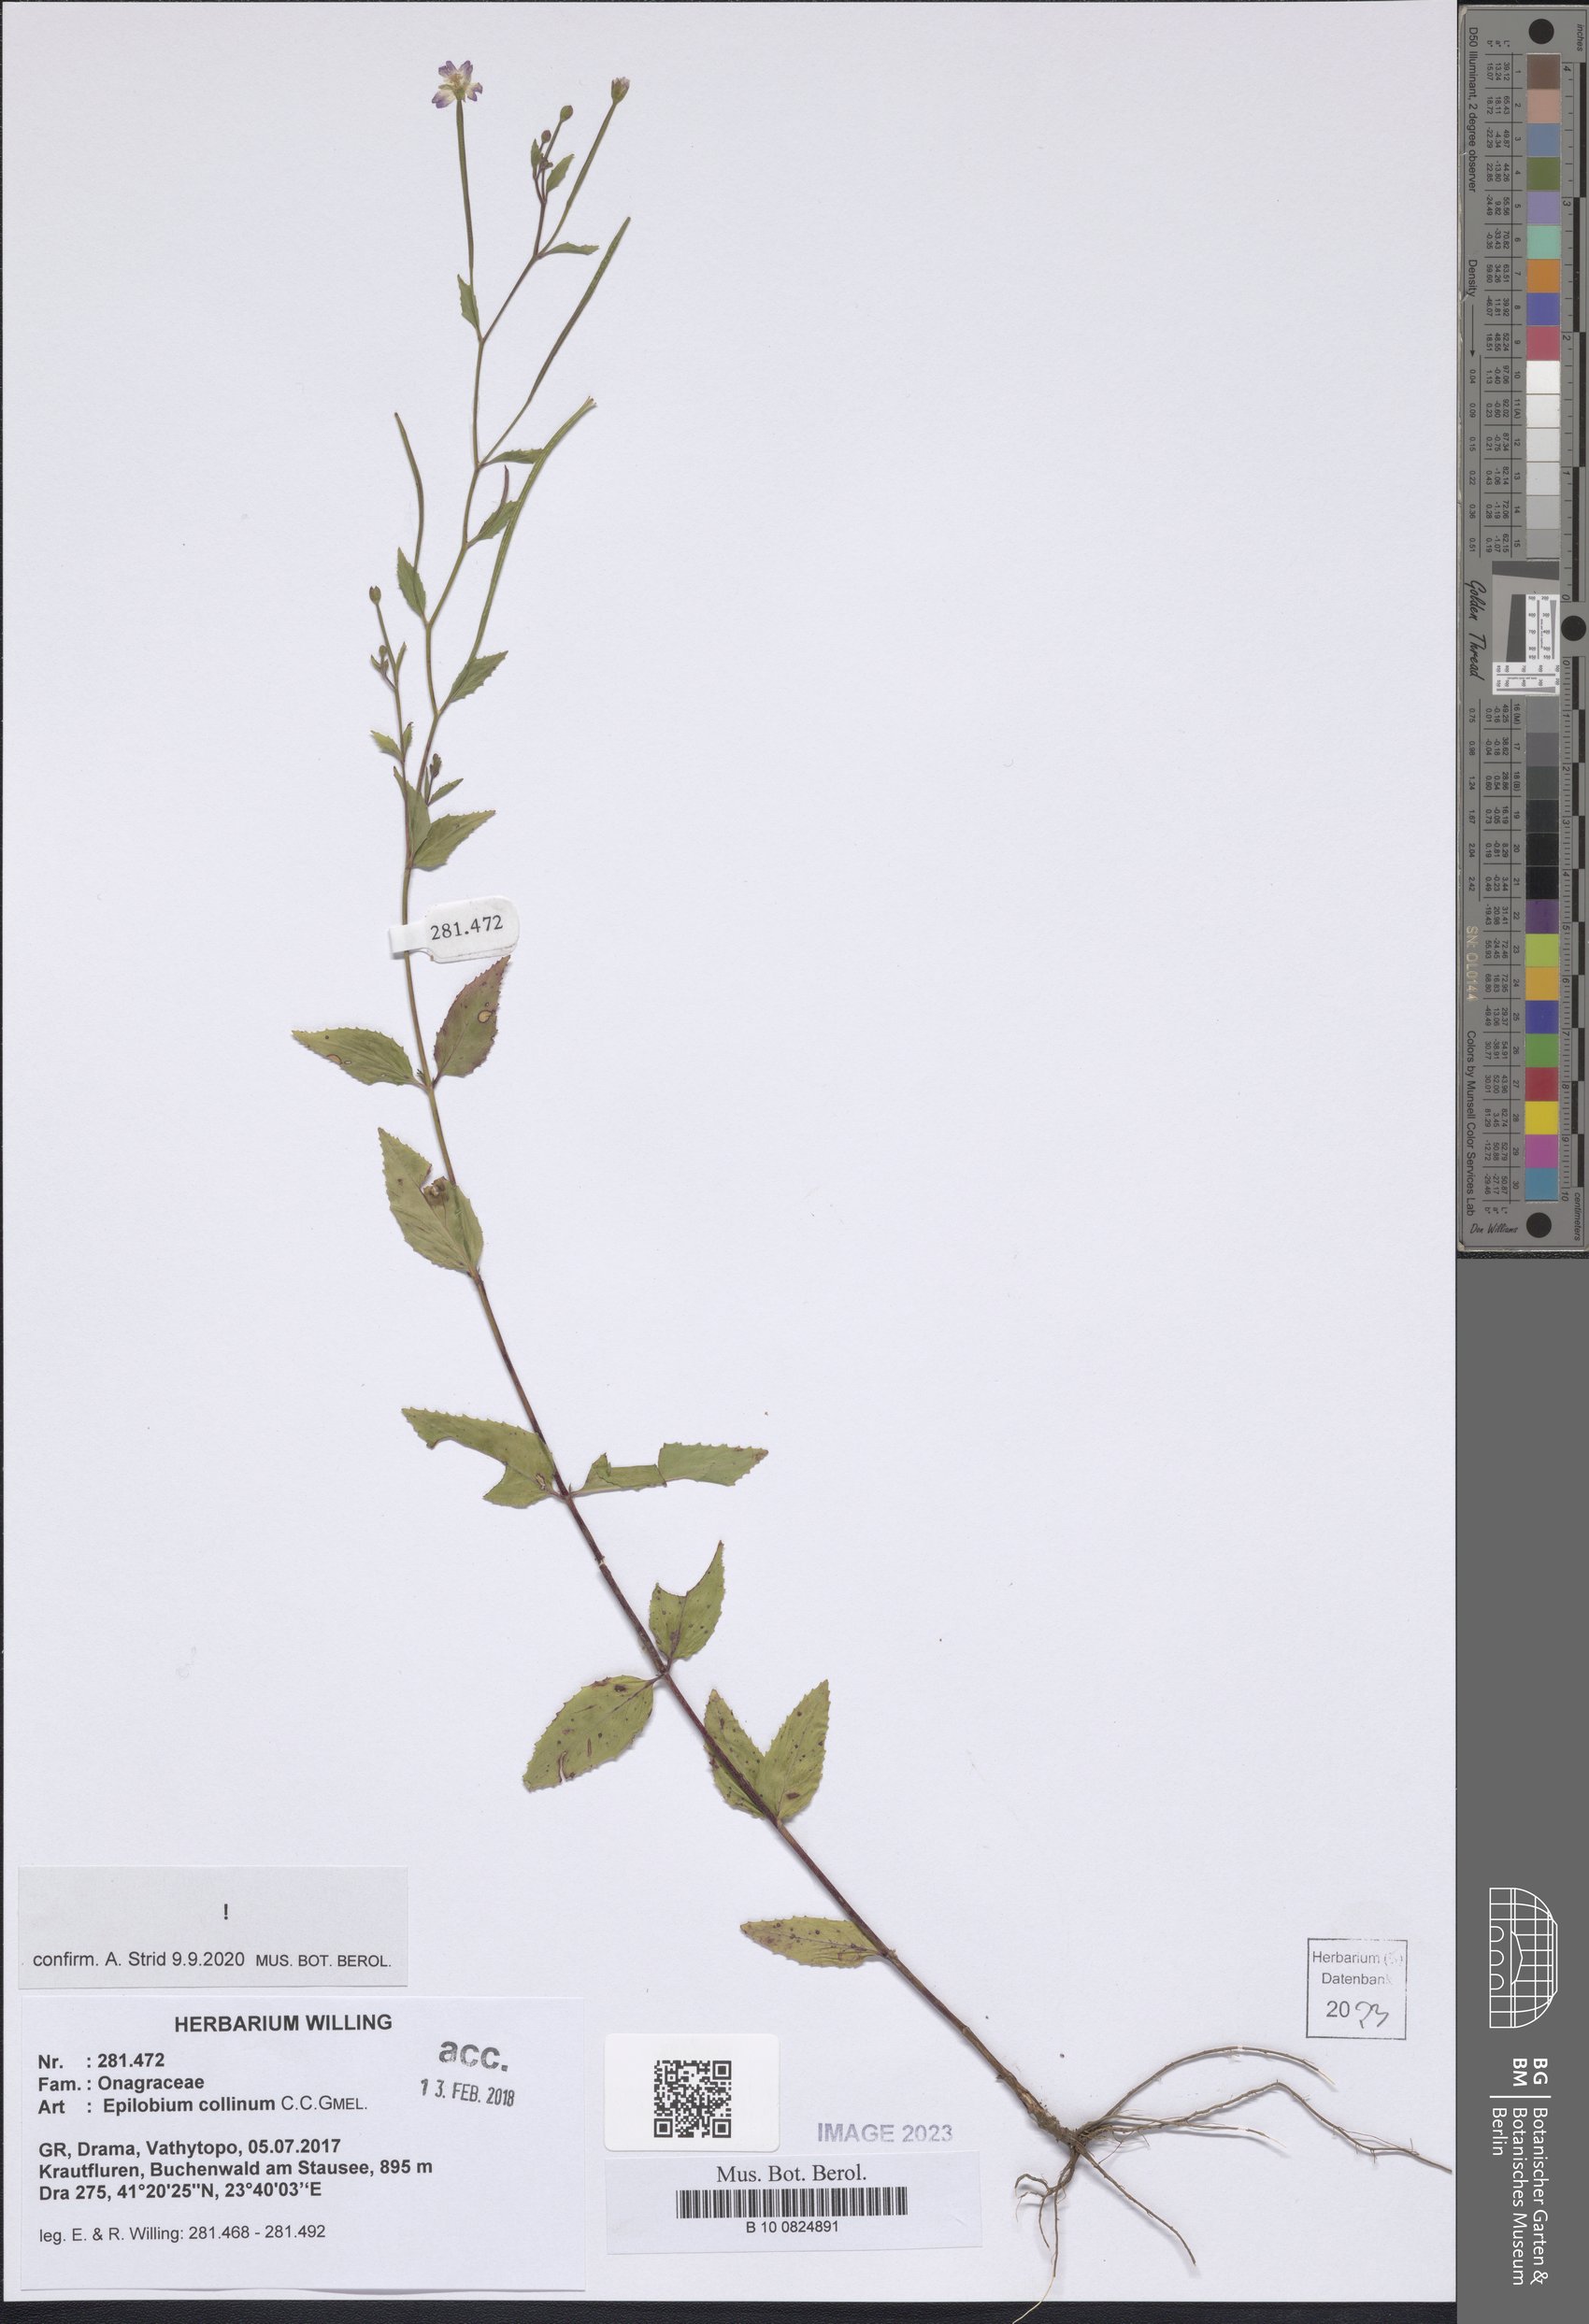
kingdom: Plantae
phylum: Tracheophyta
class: Magnoliopsida
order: Myrtales
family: Onagraceae
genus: Epilobium
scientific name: Epilobium collinum
